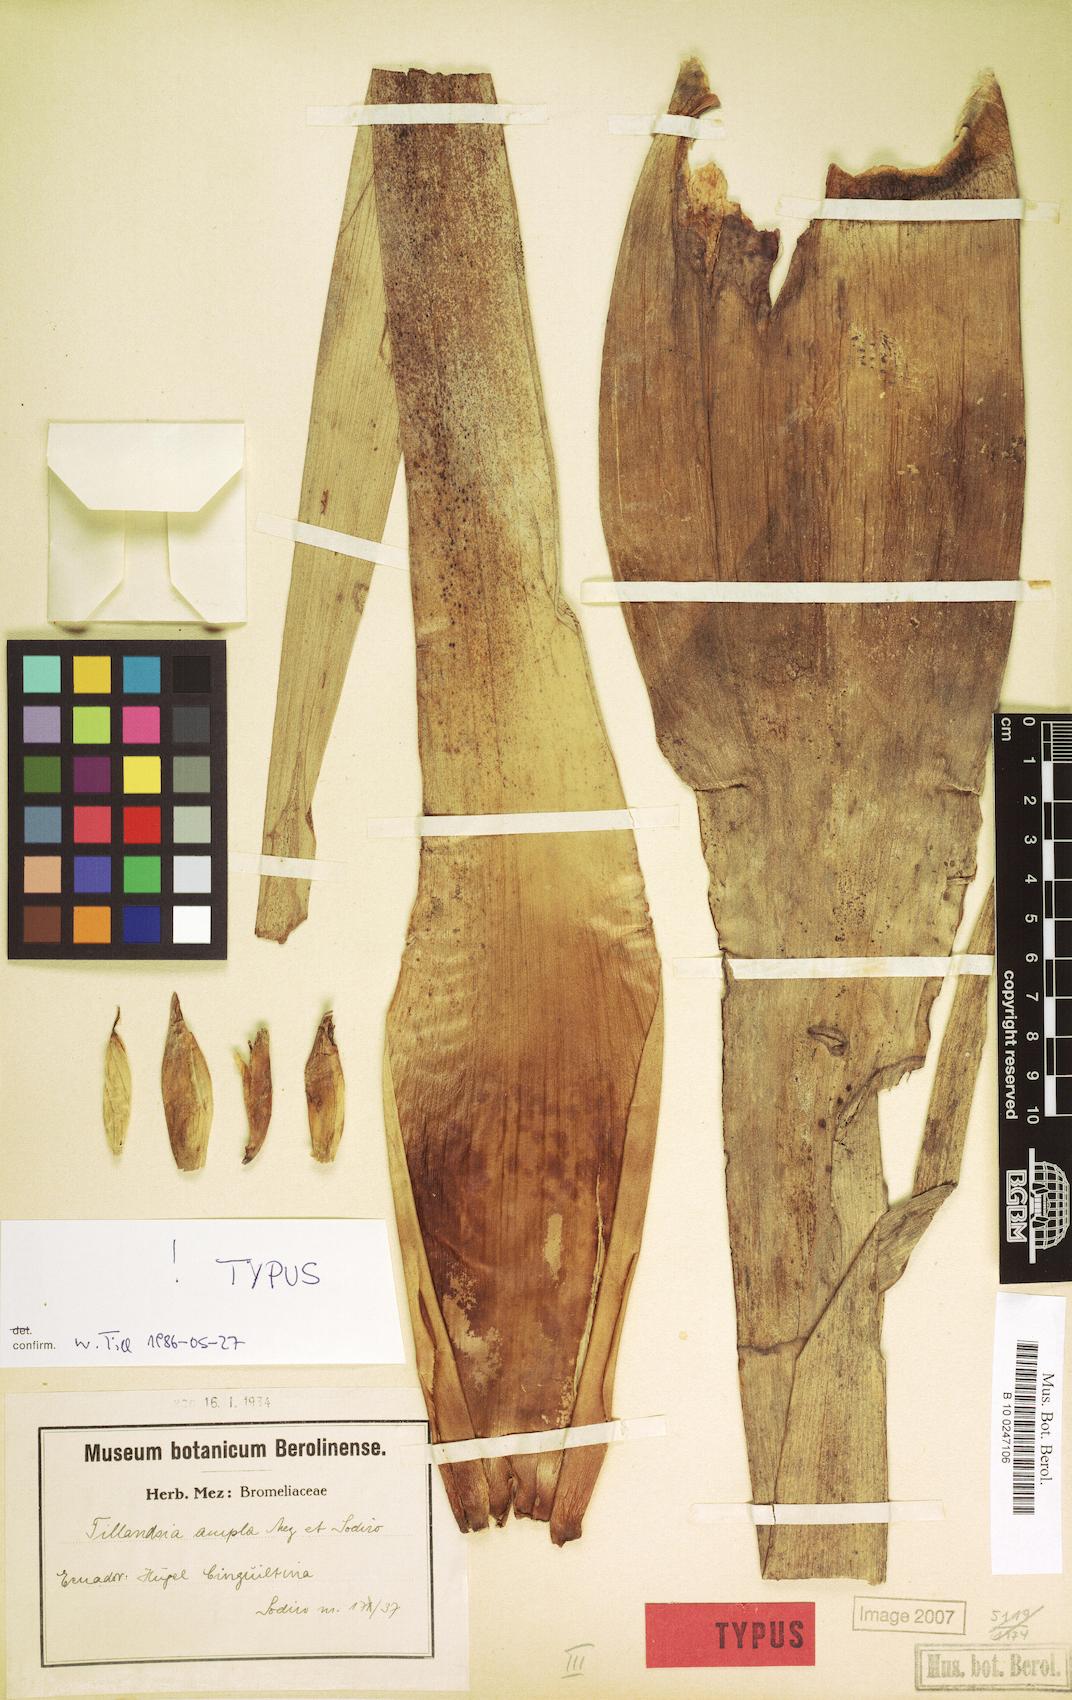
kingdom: Plantae
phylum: Tracheophyta
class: Liliopsida
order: Poales
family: Bromeliaceae
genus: Tillandsia
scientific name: Tillandsia lajensis
